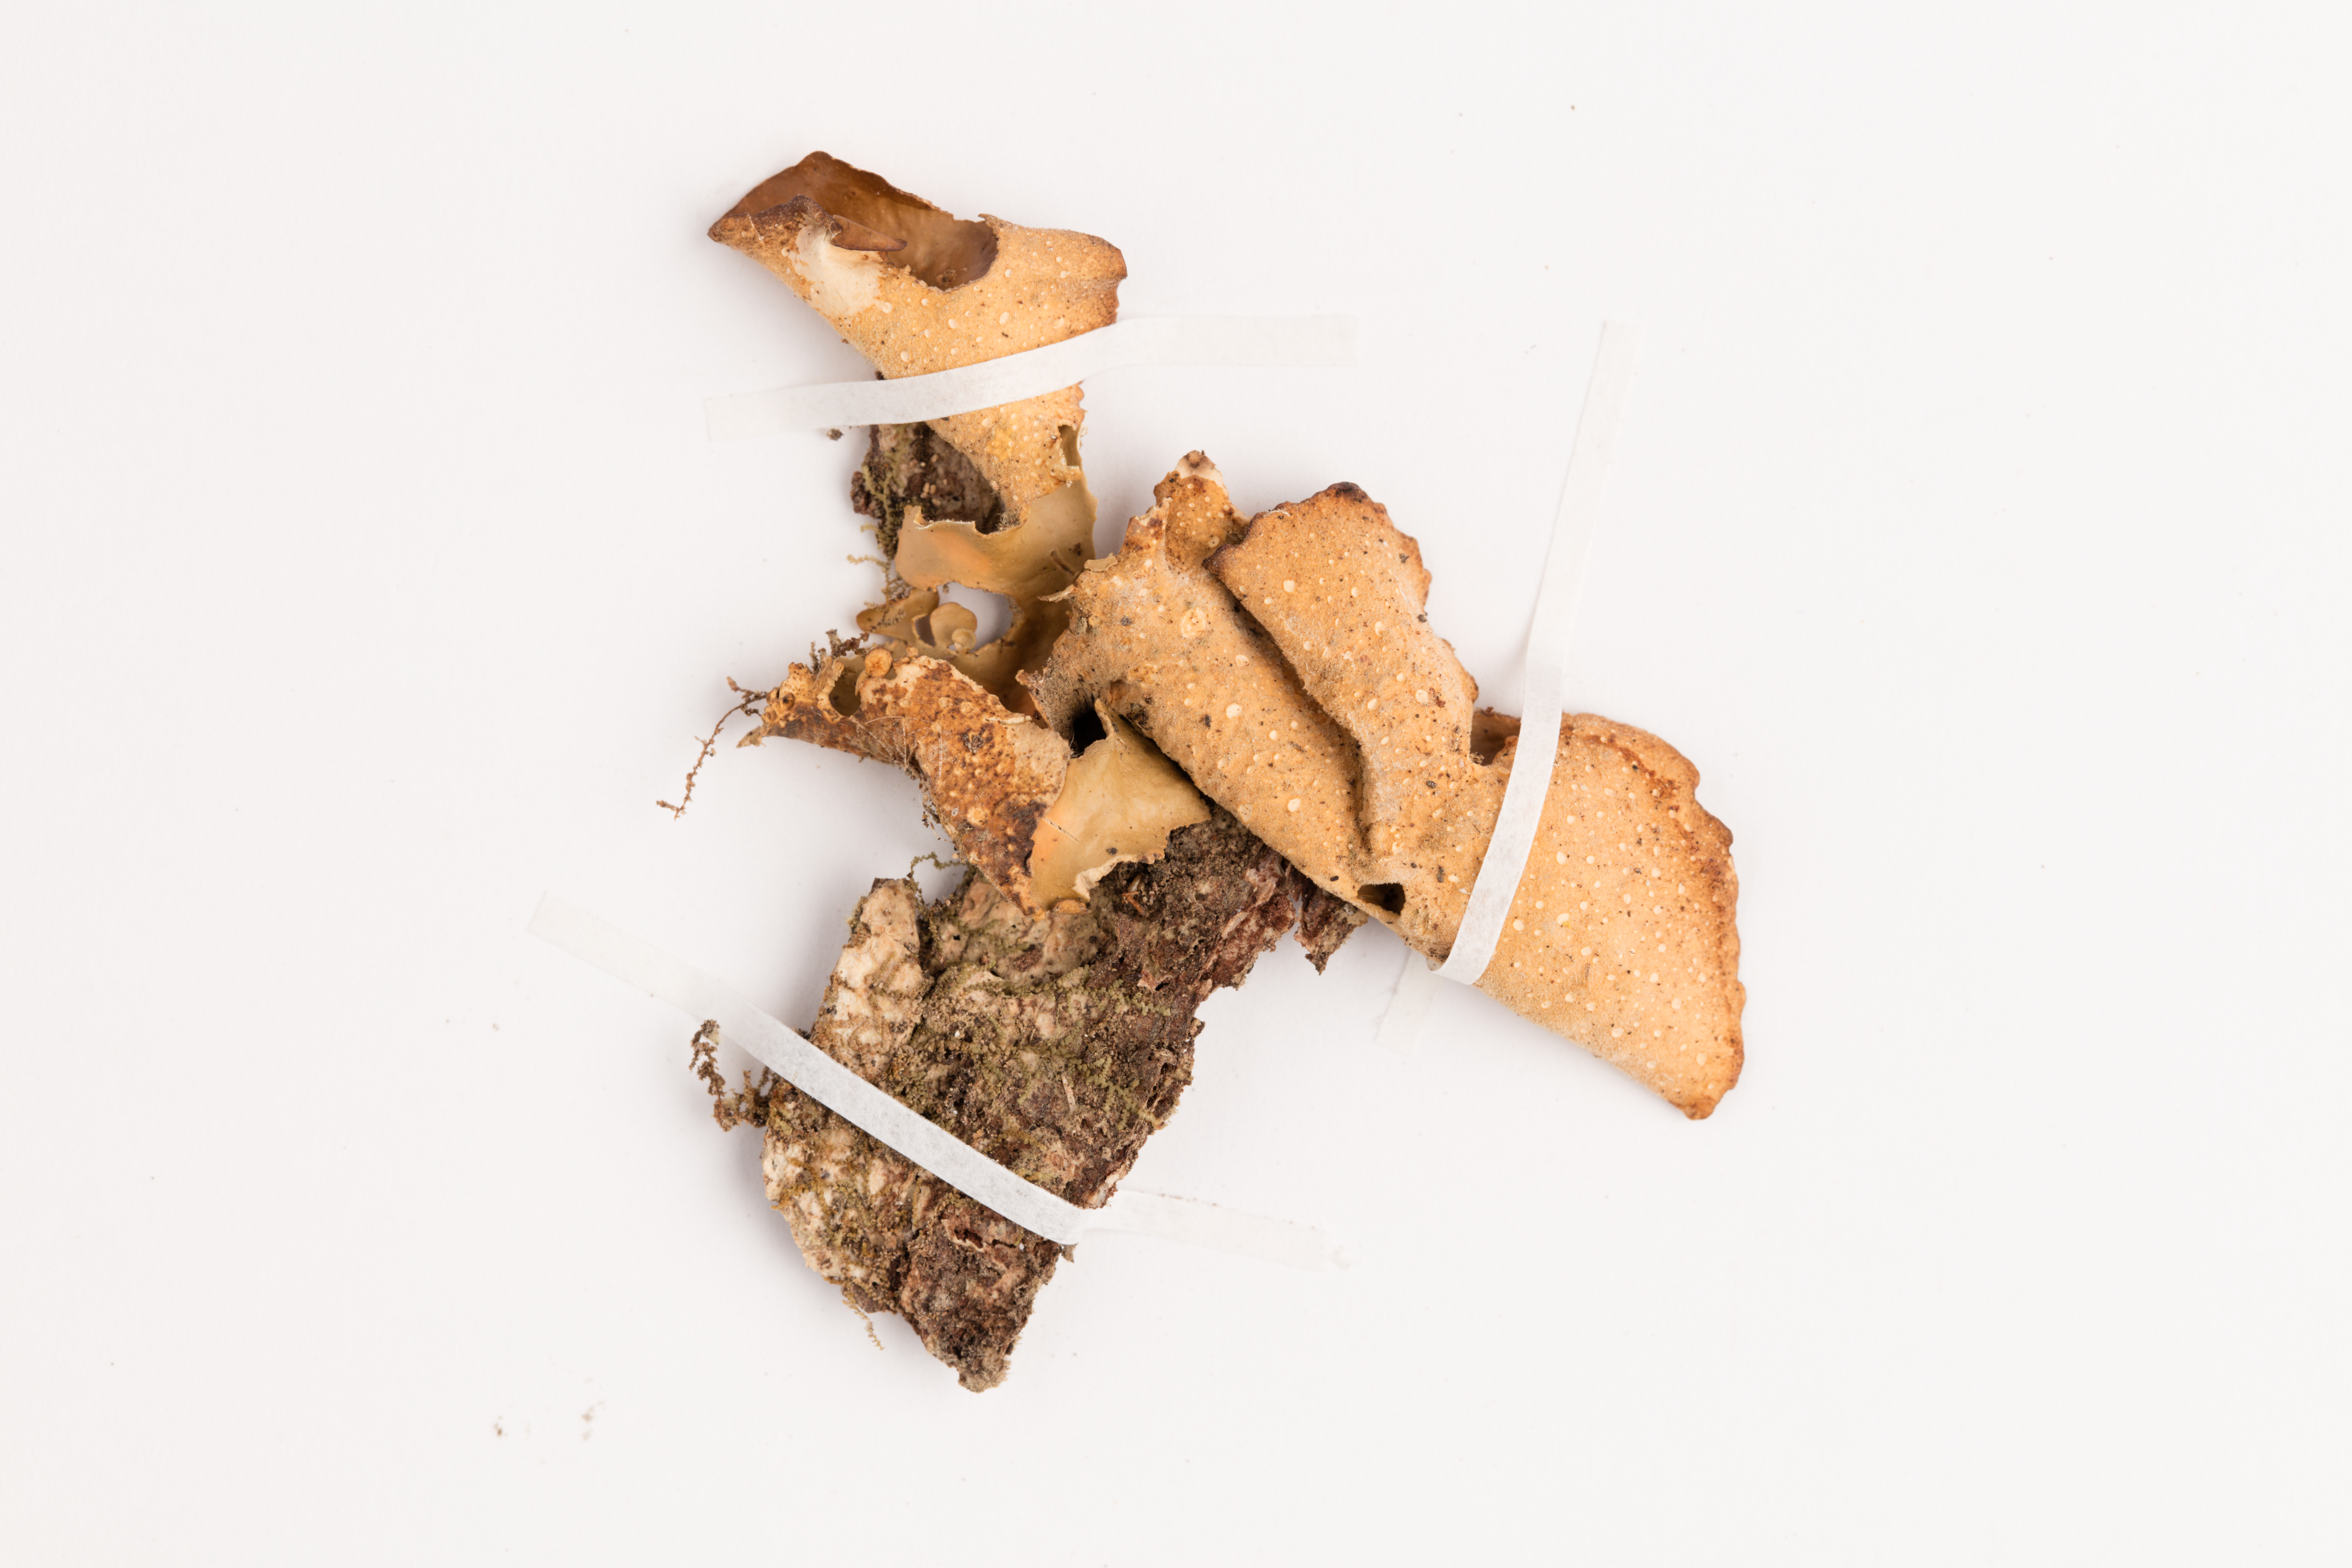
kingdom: Fungi
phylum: Ascomycota
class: Lecanoromycetes
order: Peltigerales
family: Lobariaceae
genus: Sticta
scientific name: Sticta latifrons
